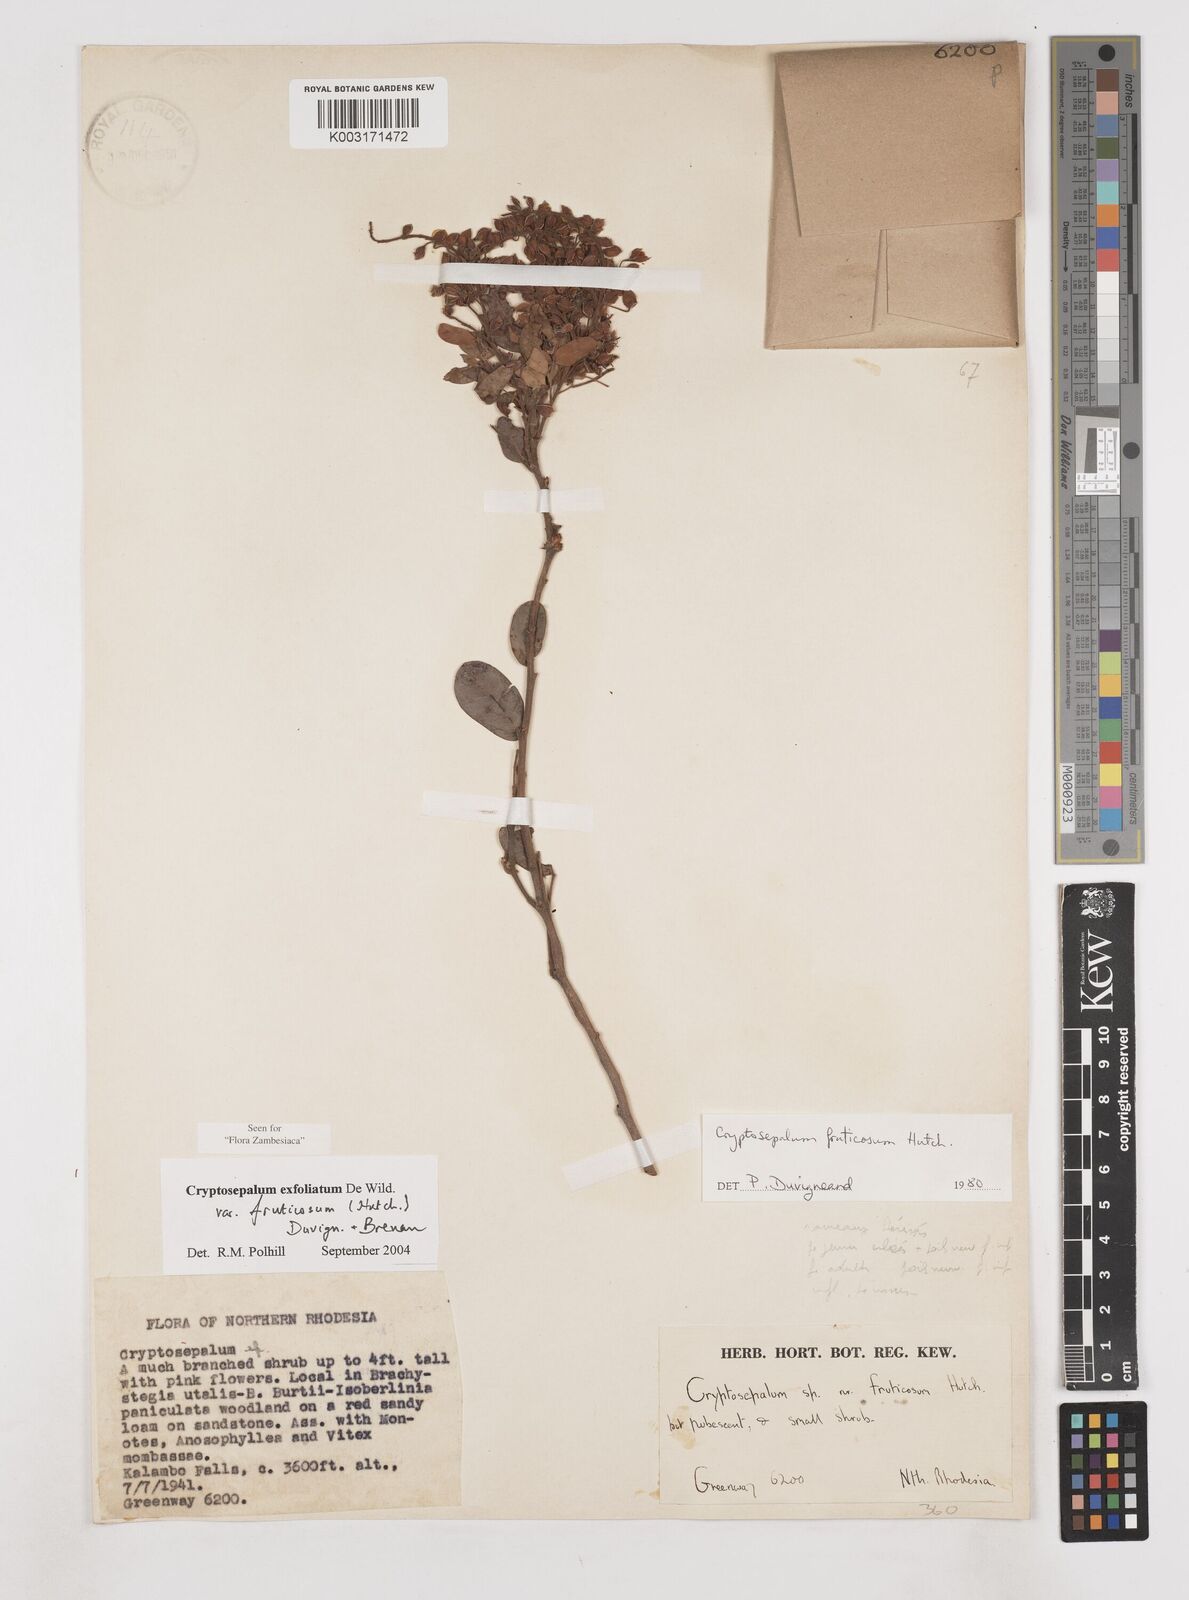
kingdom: Plantae
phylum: Tracheophyta
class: Magnoliopsida
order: Fabales
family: Fabaceae
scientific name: Fabaceae
